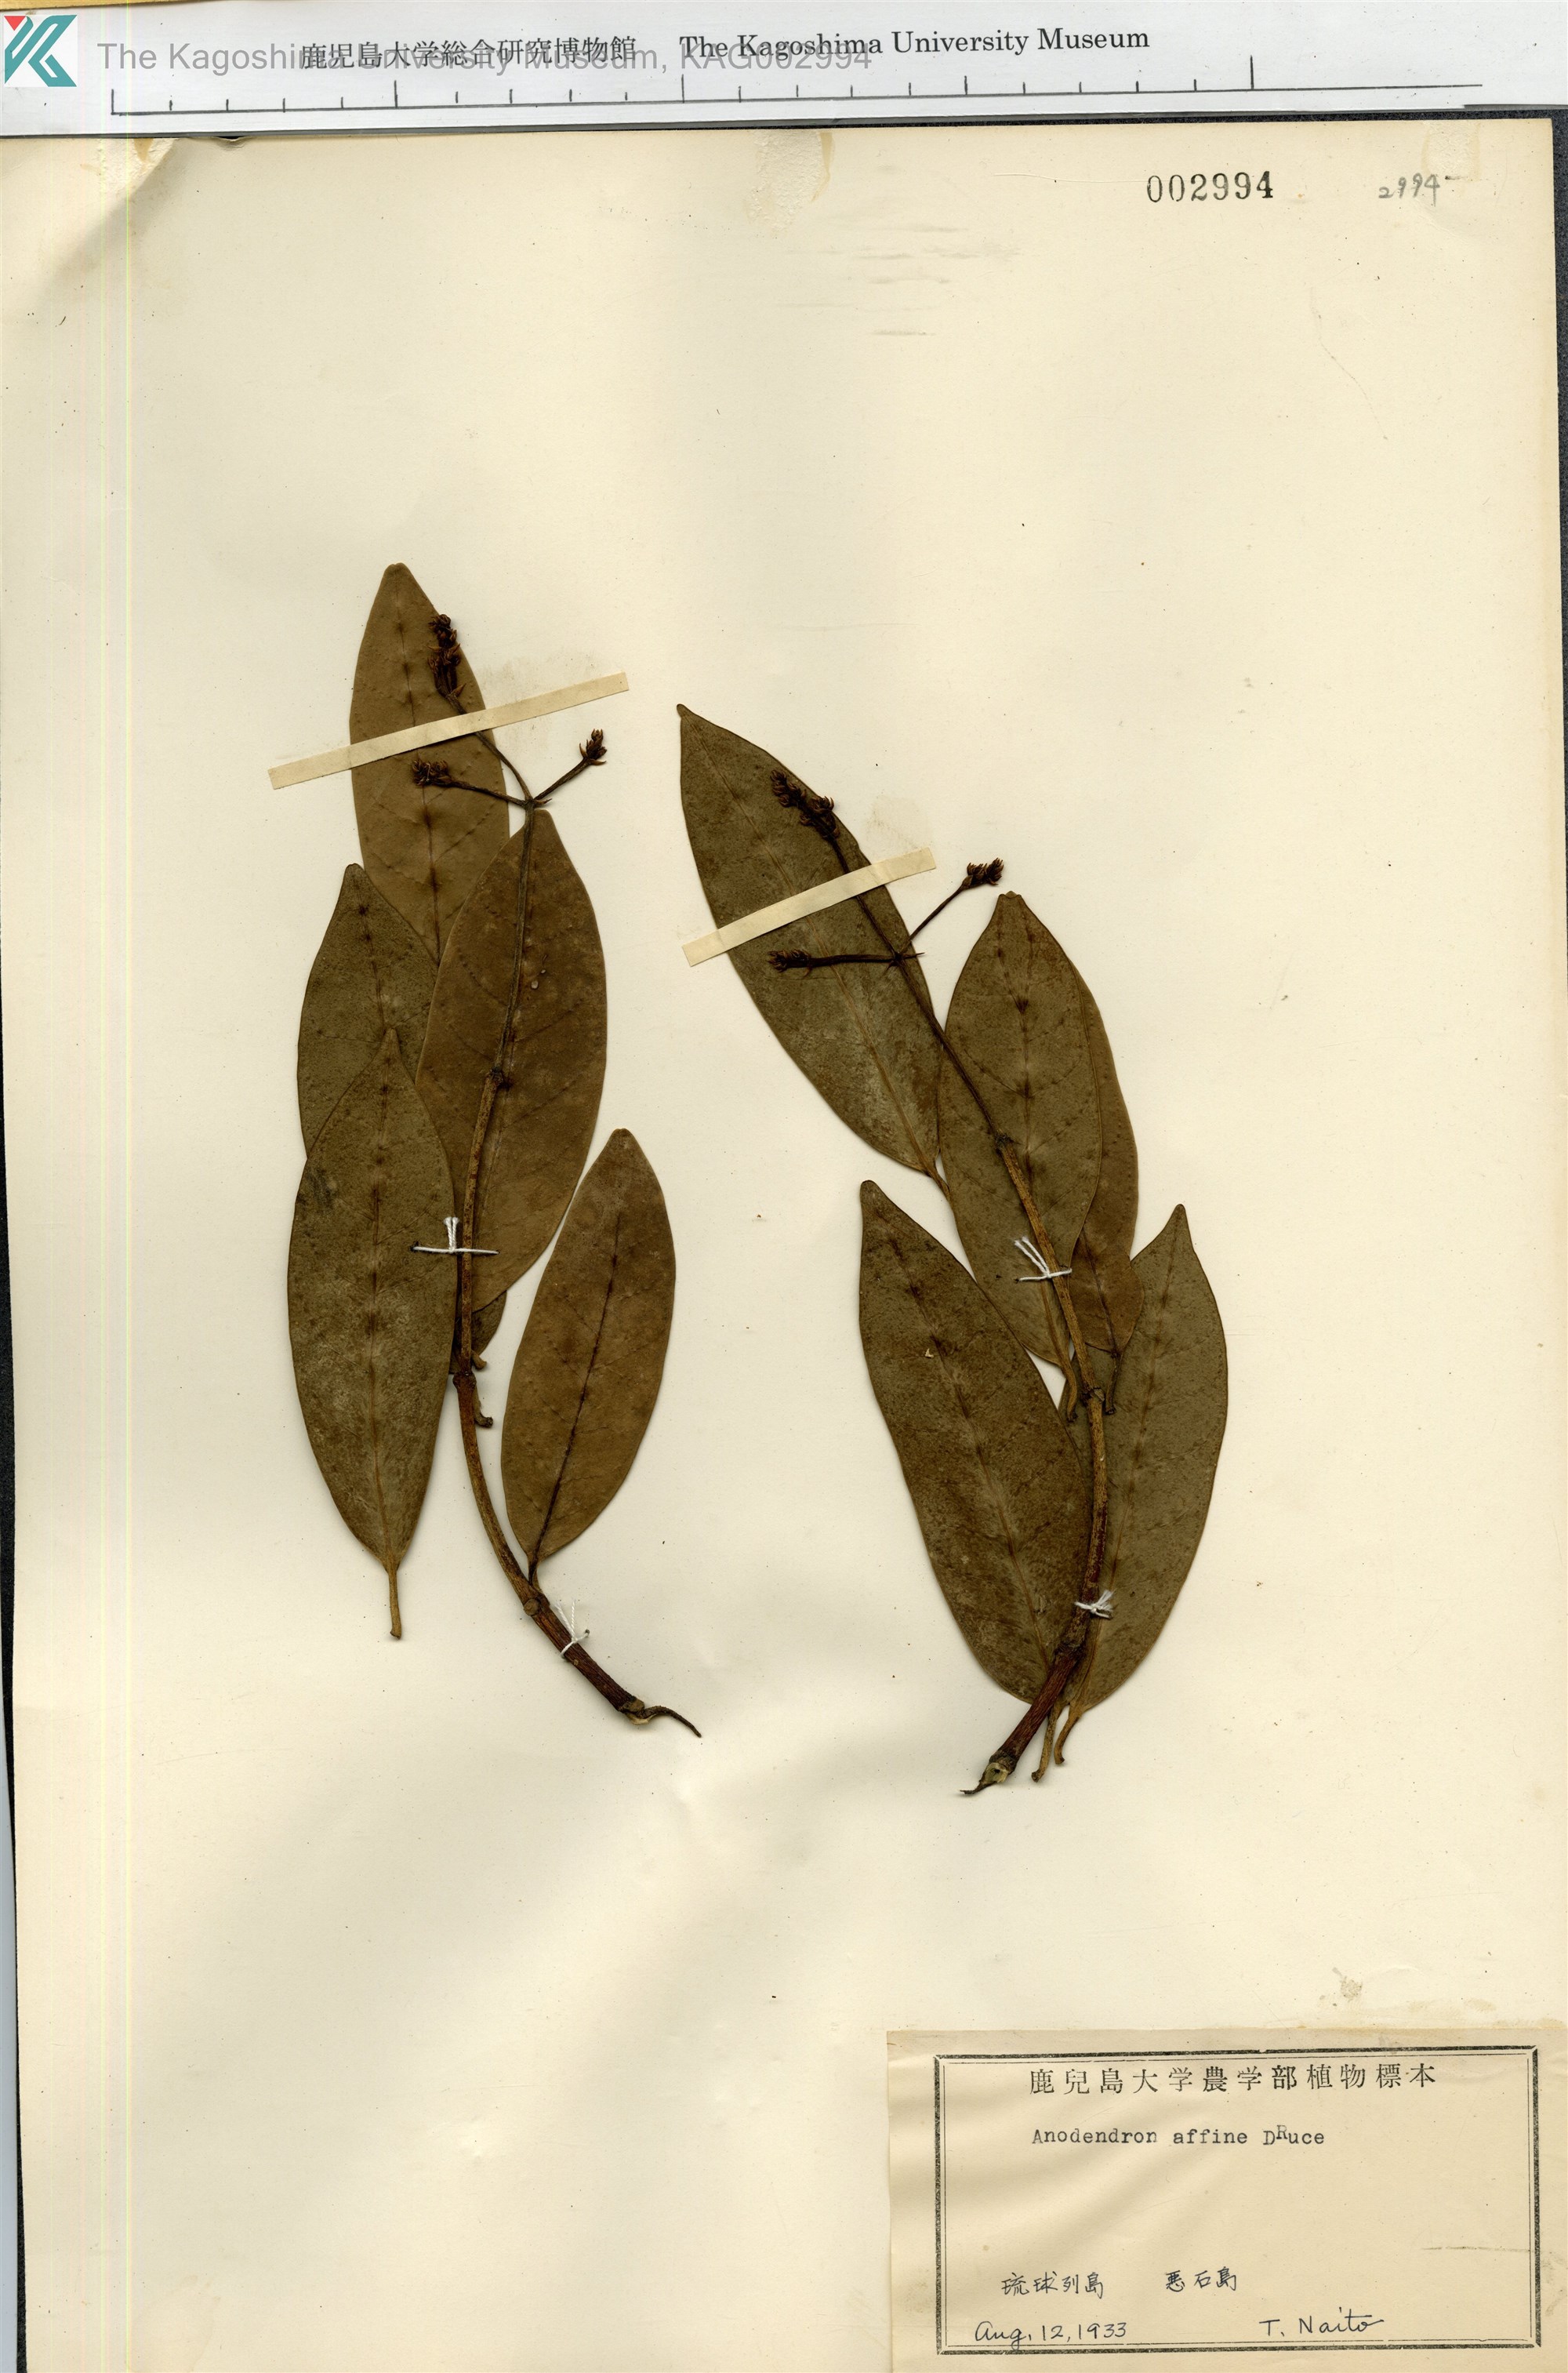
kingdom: Plantae
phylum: Tracheophyta
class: Magnoliopsida
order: Gentianales
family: Apocynaceae
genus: Anodendron
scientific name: Anodendron affine
